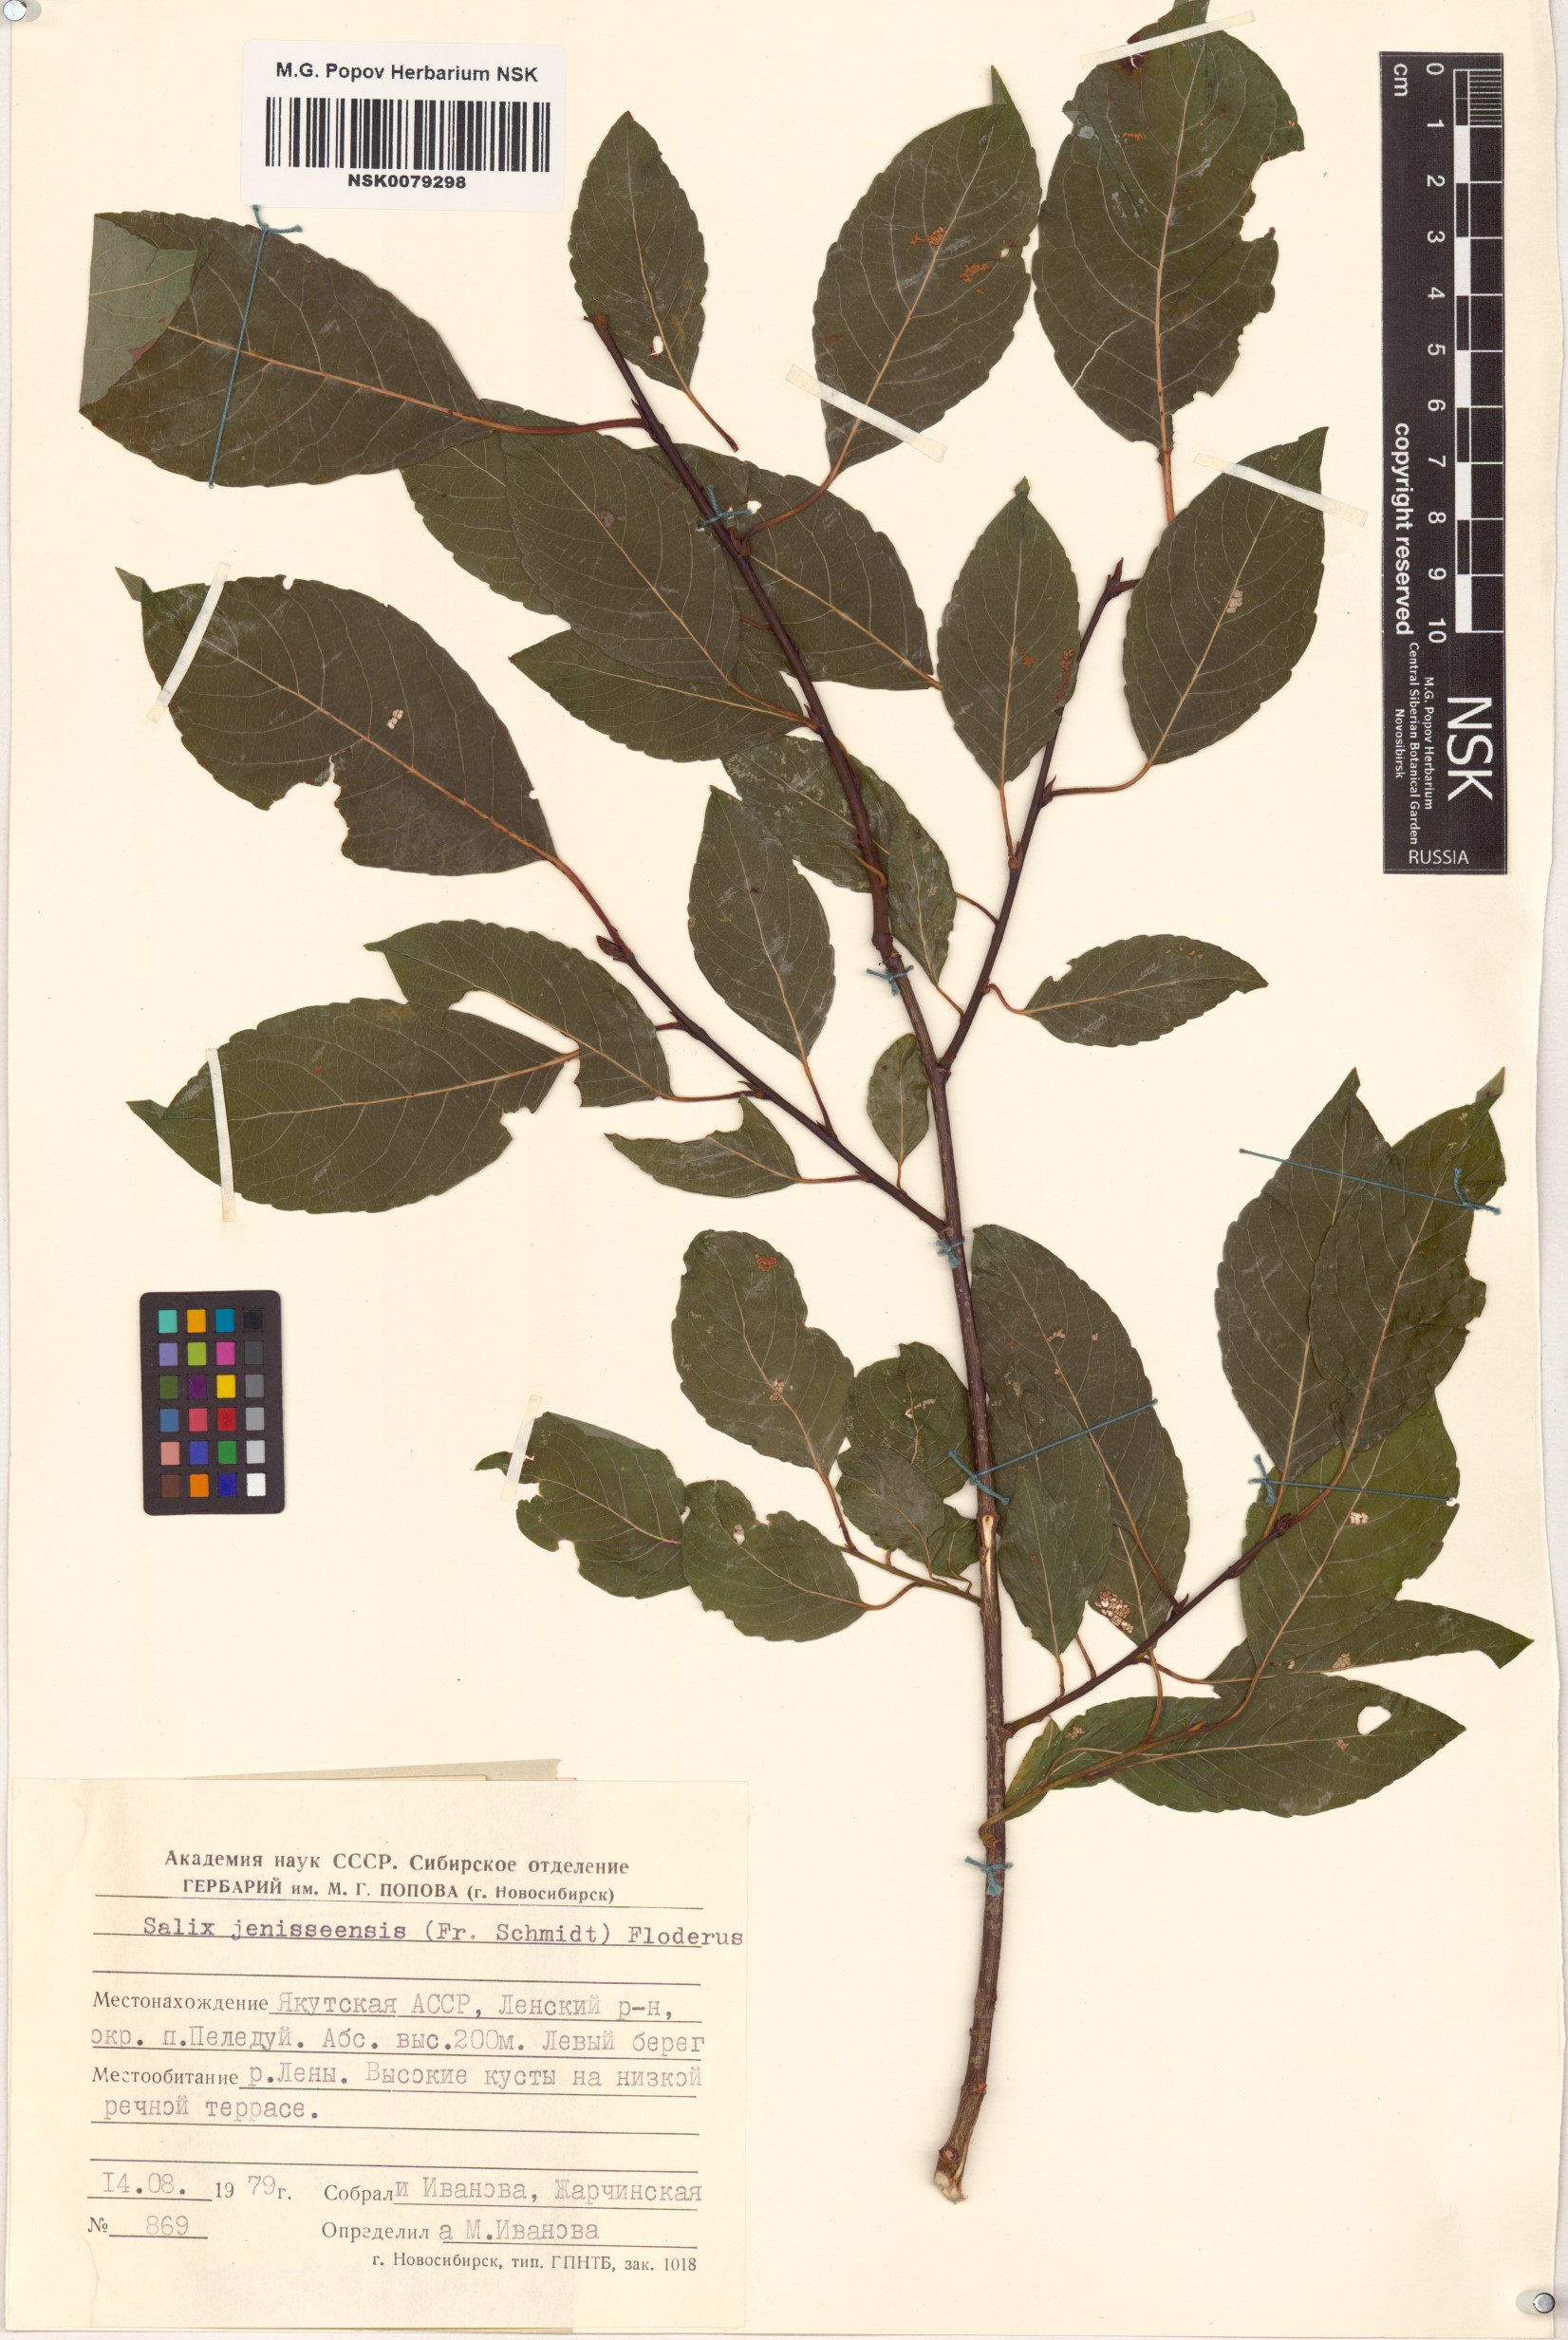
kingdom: Plantae
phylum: Tracheophyta
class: Magnoliopsida
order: Malpighiales
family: Salicaceae
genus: Salix
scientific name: Salix jenisseensis
